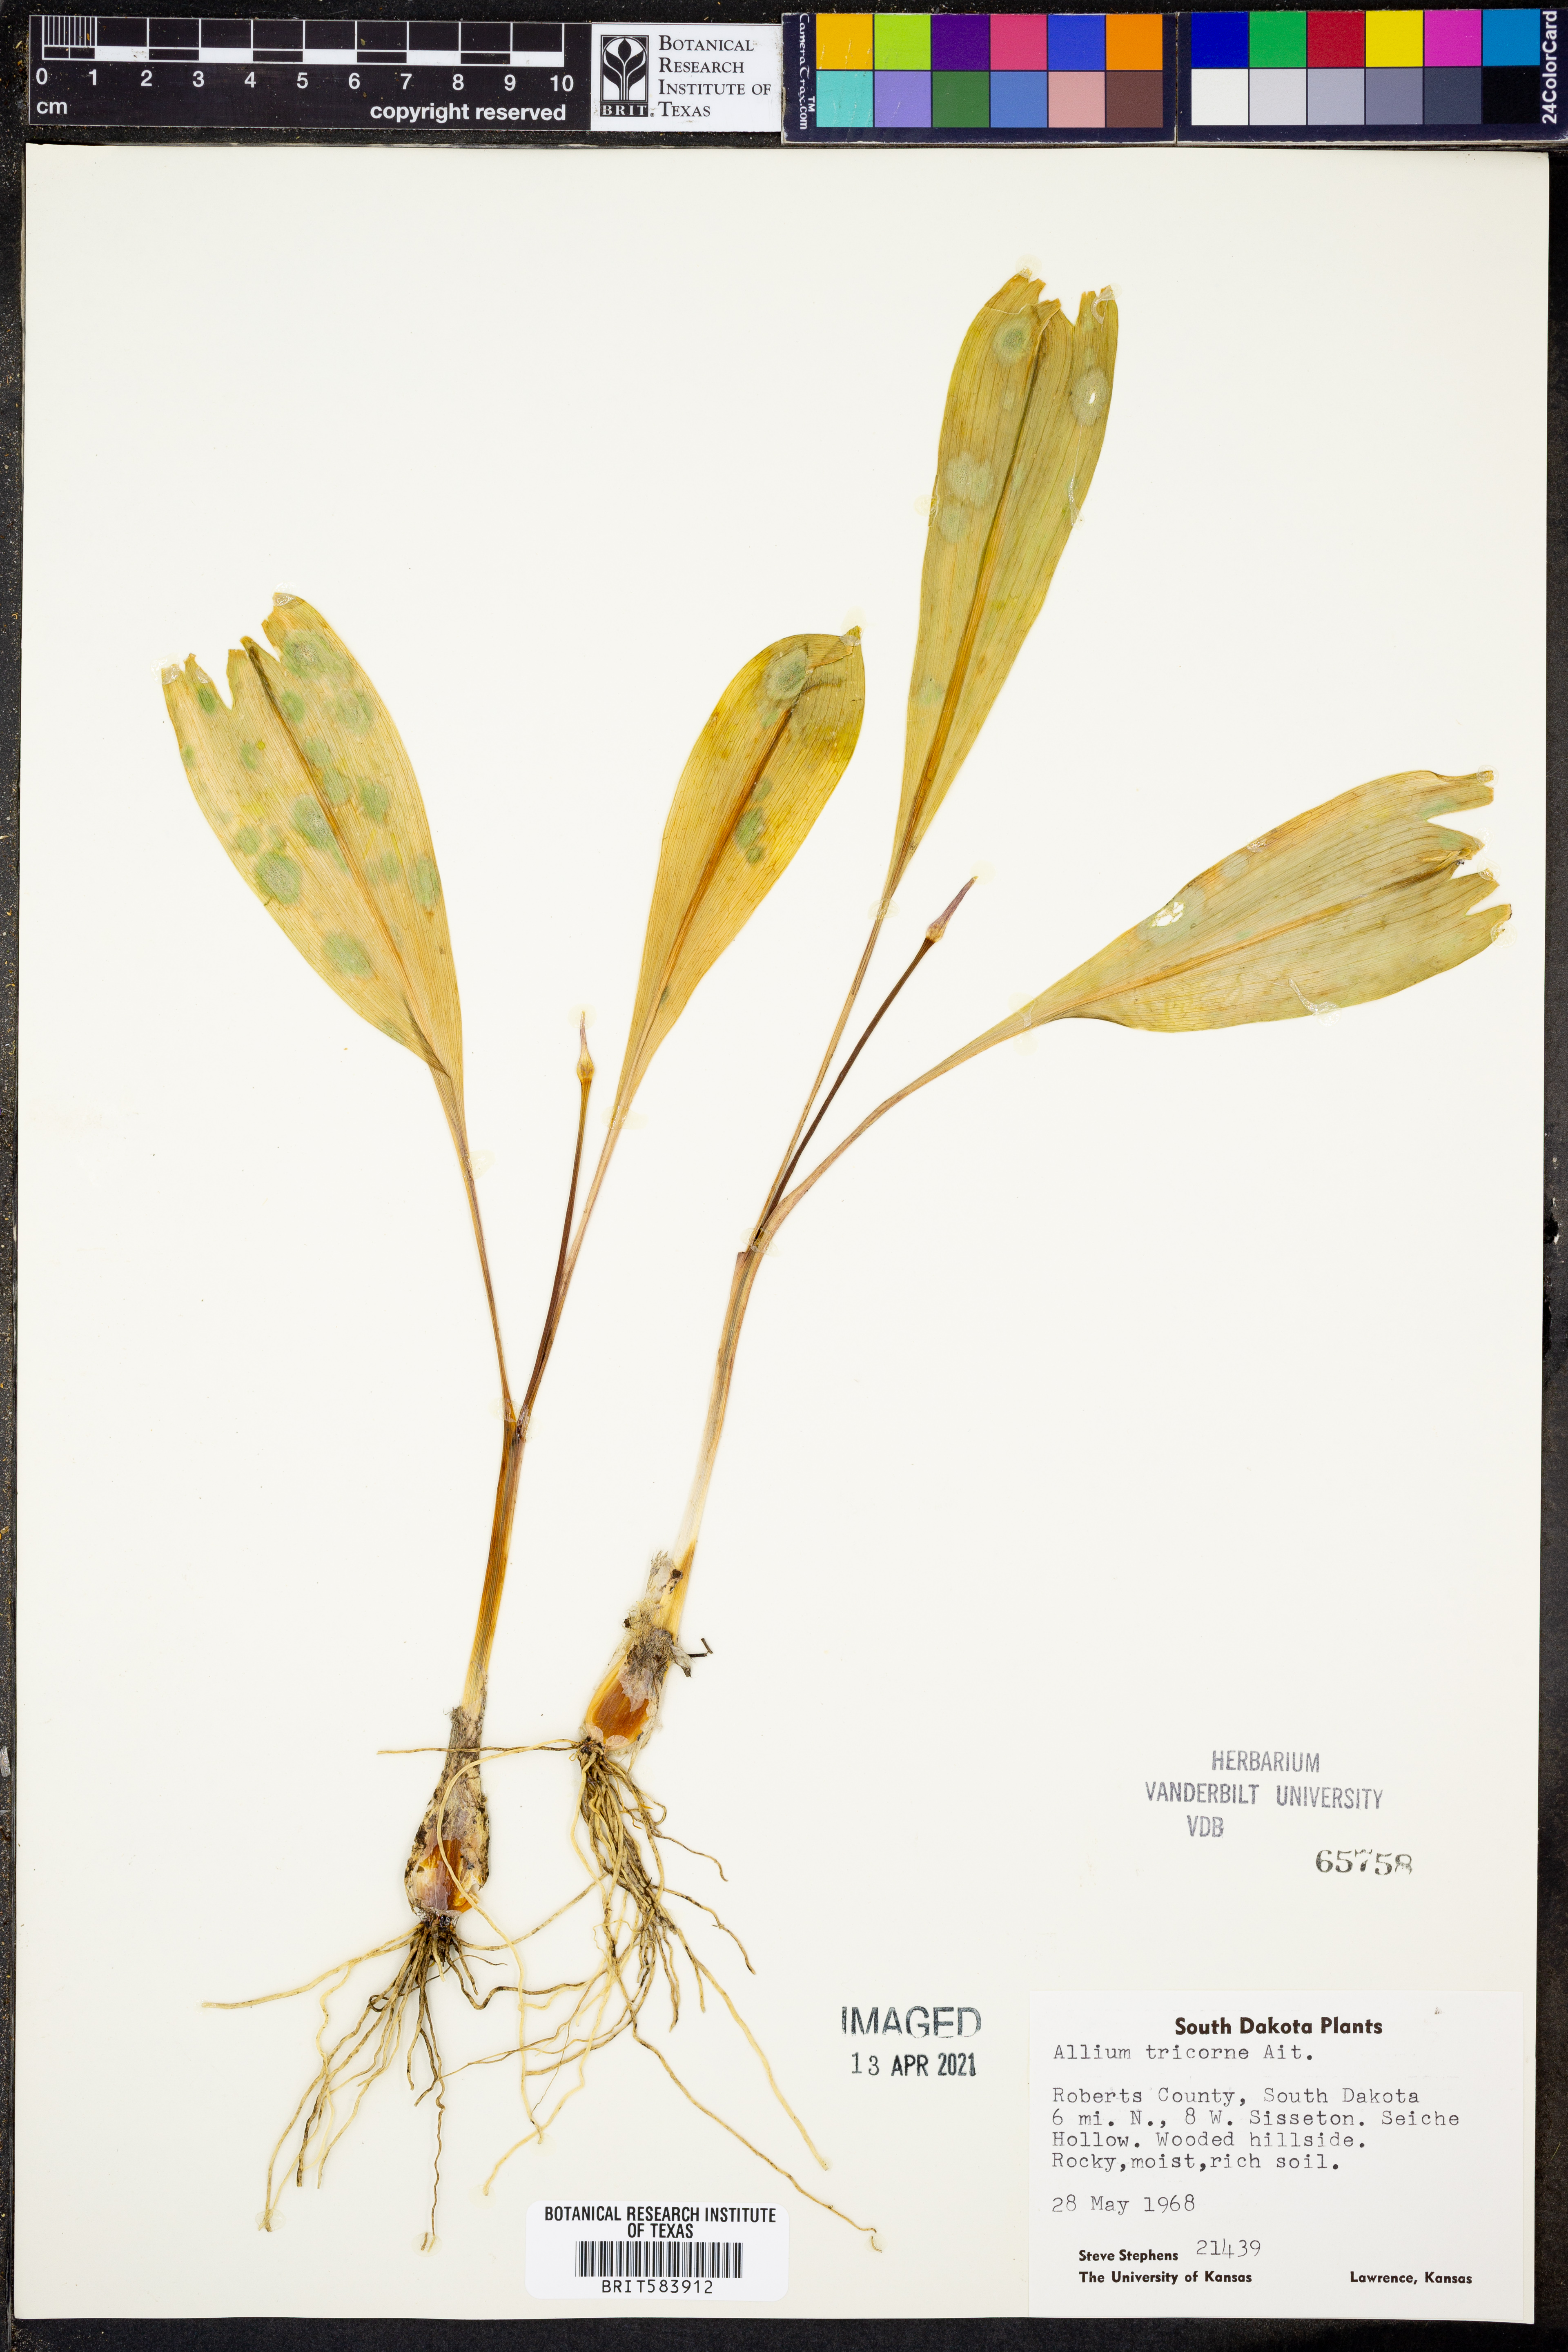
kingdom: Plantae
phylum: Tracheophyta
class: Liliopsida
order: Asparagales
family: Amaryllidaceae
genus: Allium
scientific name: Allium tricorne
